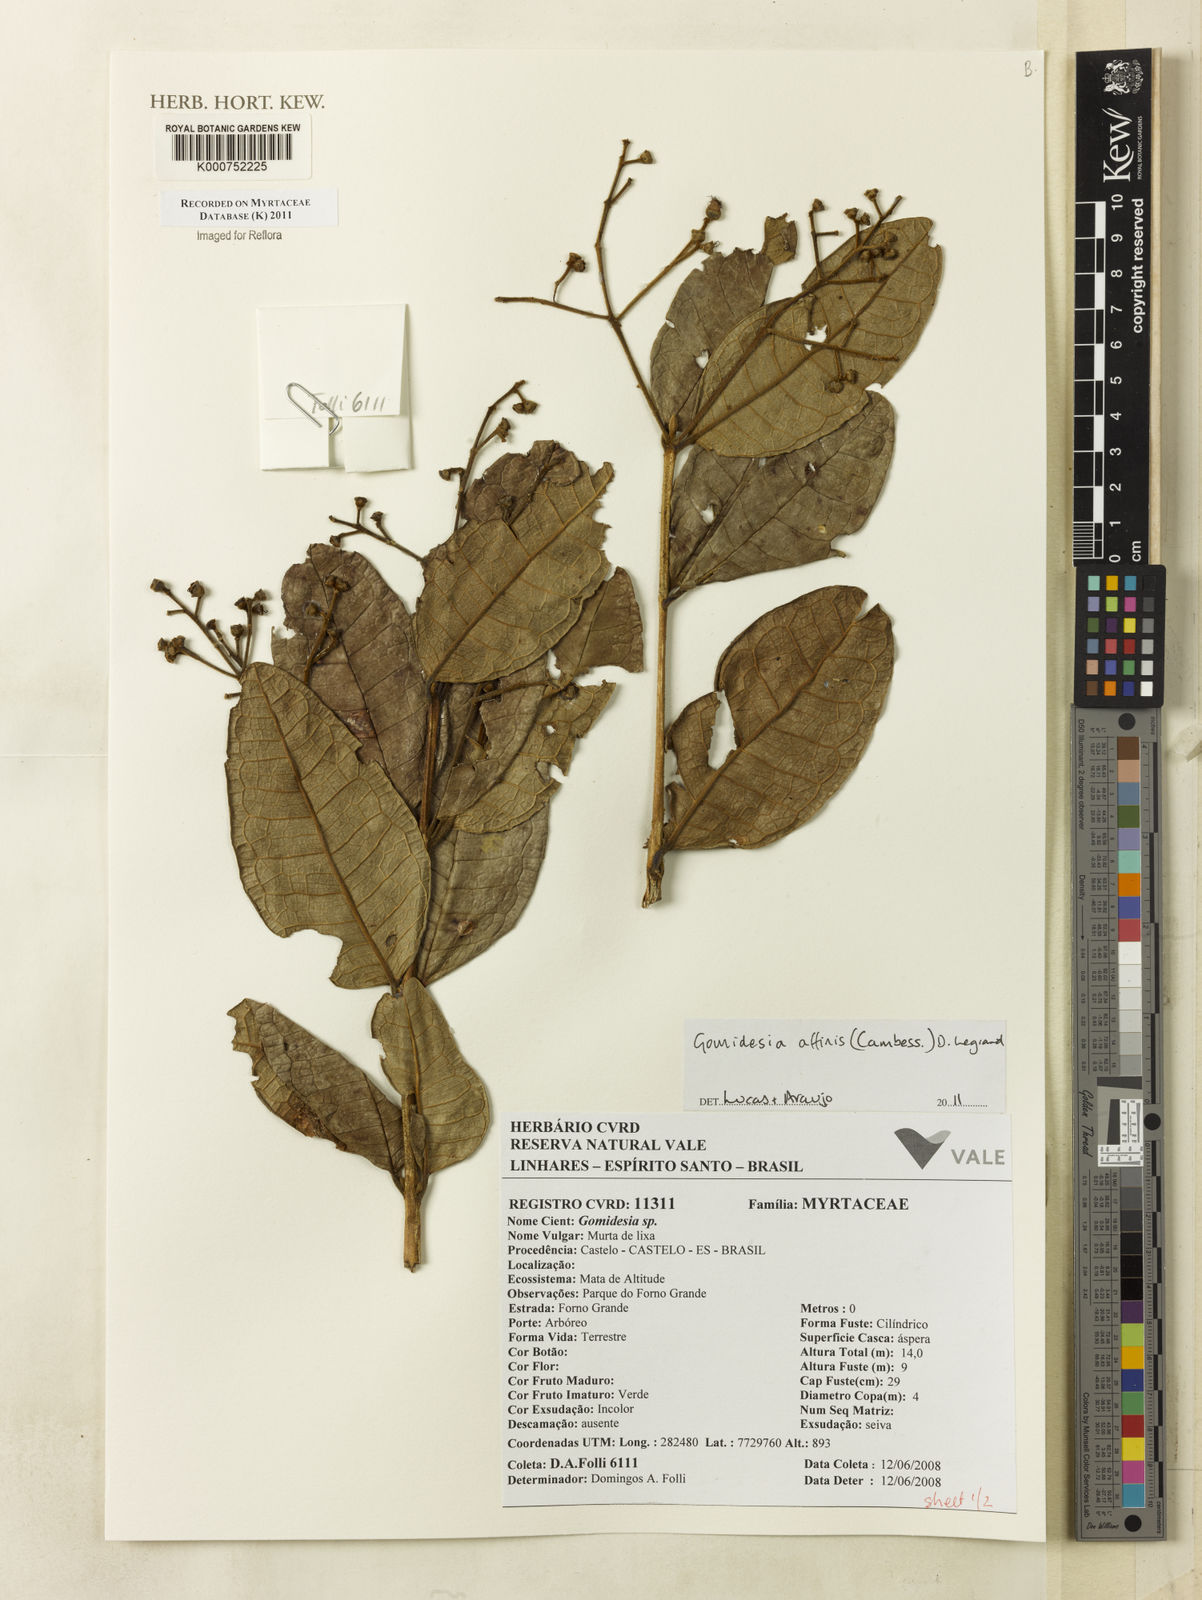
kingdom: Plantae
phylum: Tracheophyta
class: Magnoliopsida
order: Myrtales
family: Myrtaceae
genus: Myrcia
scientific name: Myrcia hebepetala
